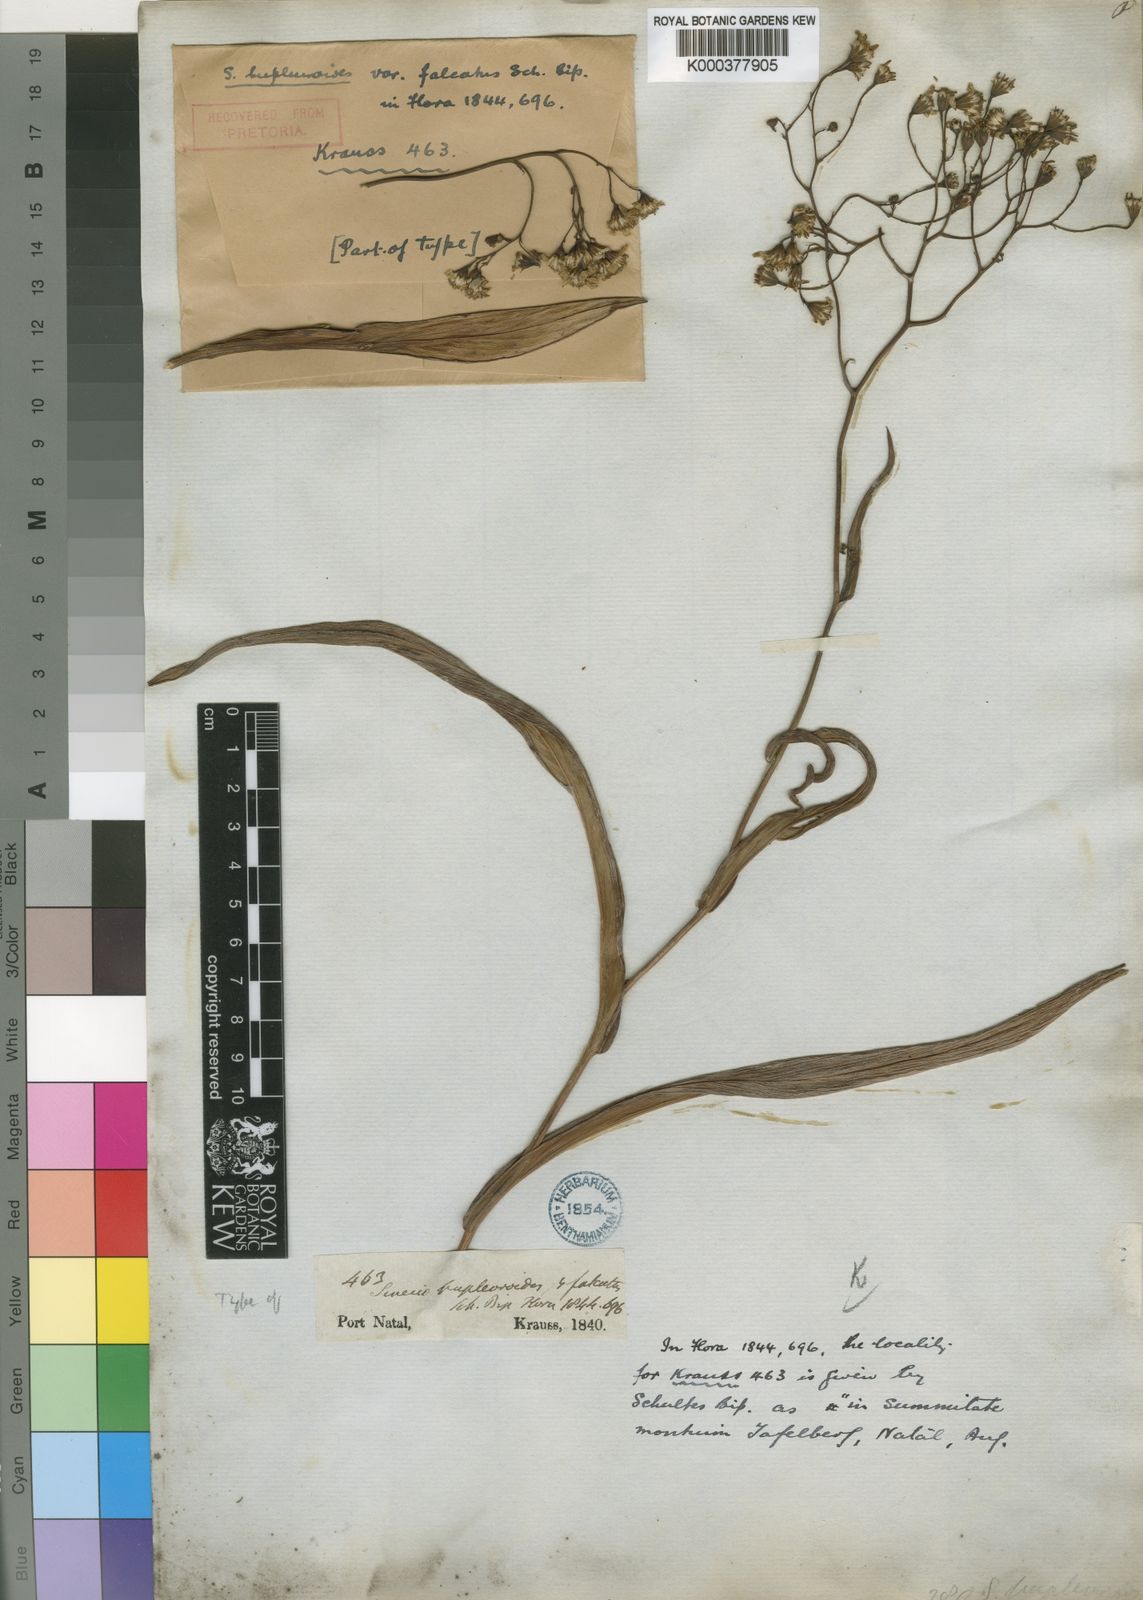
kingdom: Plantae
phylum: Tracheophyta
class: Magnoliopsida
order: Asterales
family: Asteraceae
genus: Senecio
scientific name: Senecio bupleuroides
